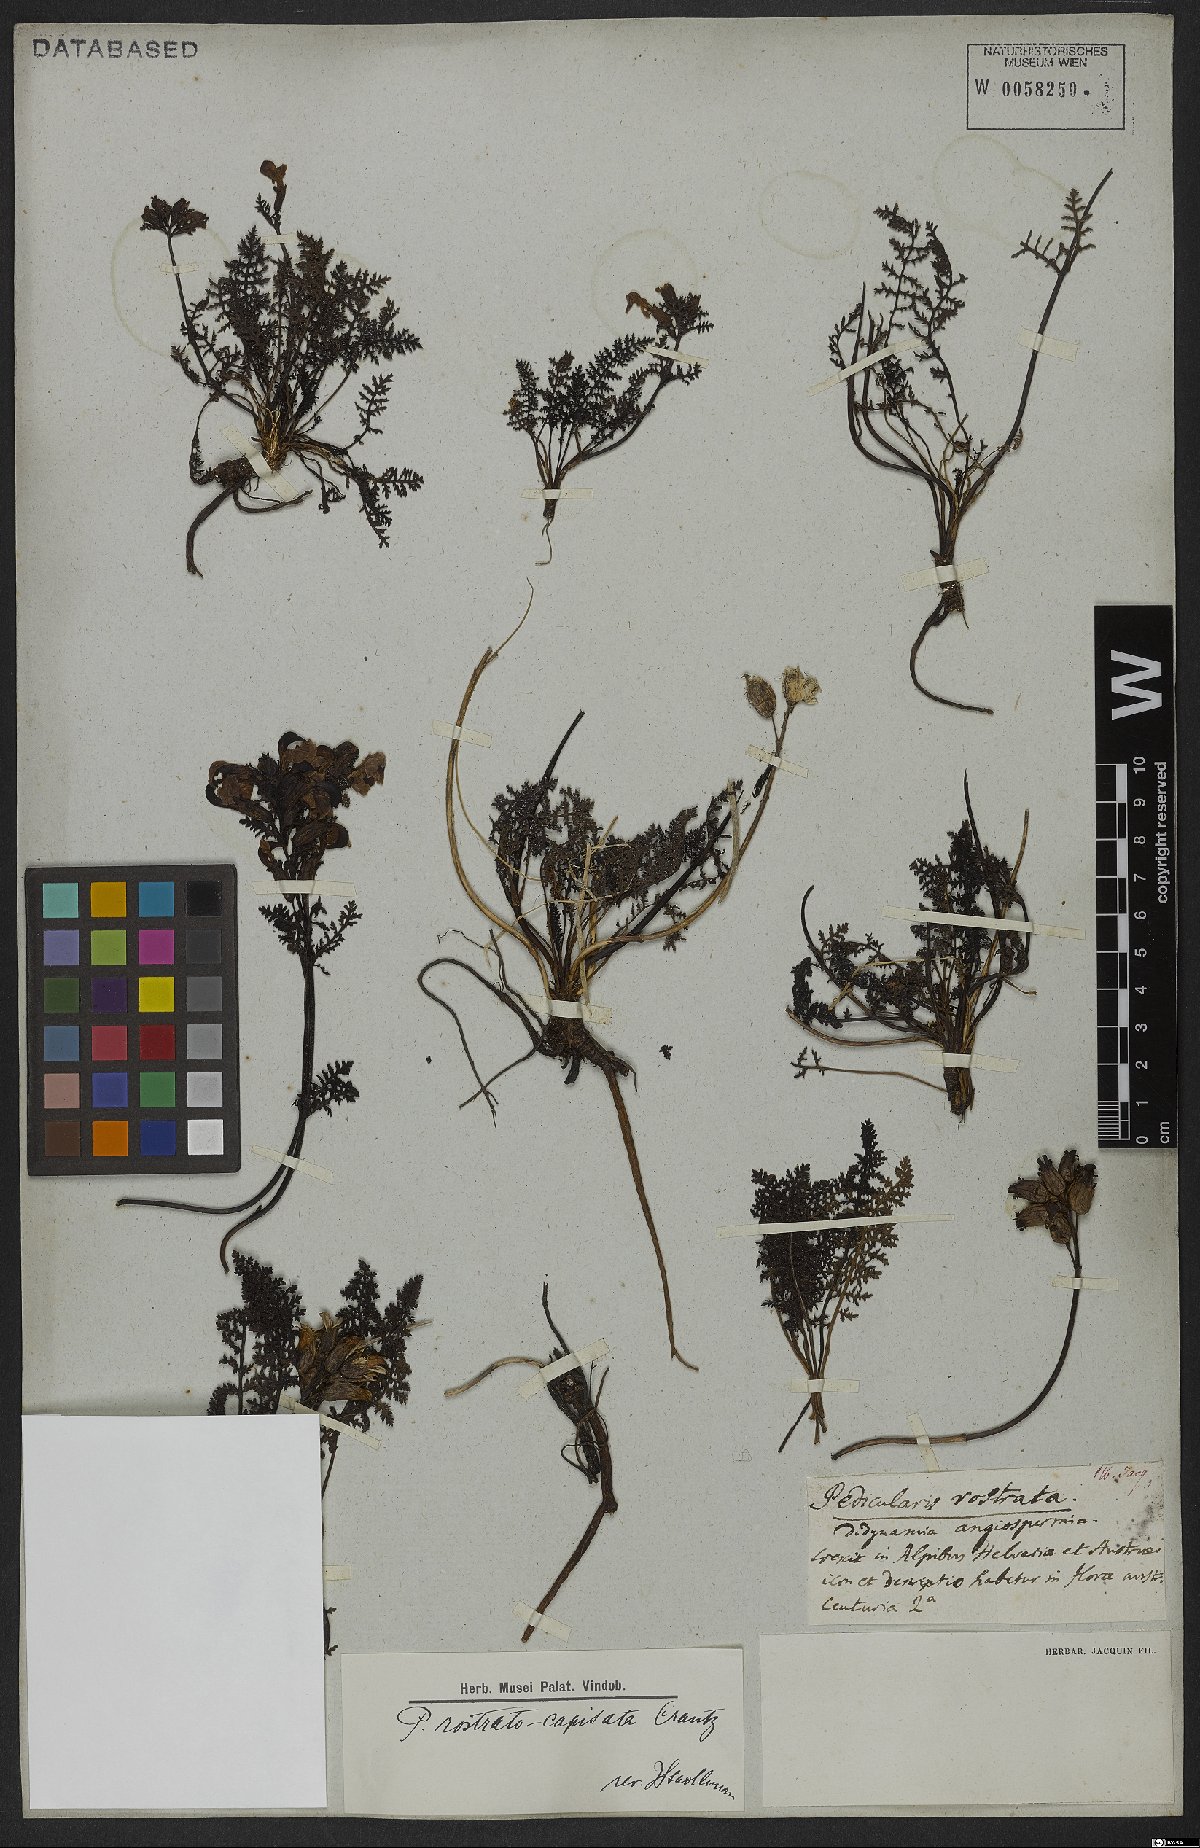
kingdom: Plantae
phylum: Tracheophyta
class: Magnoliopsida
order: Lamiales
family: Orobanchaceae
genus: Pedicularis
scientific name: Pedicularis rostratocapitata
